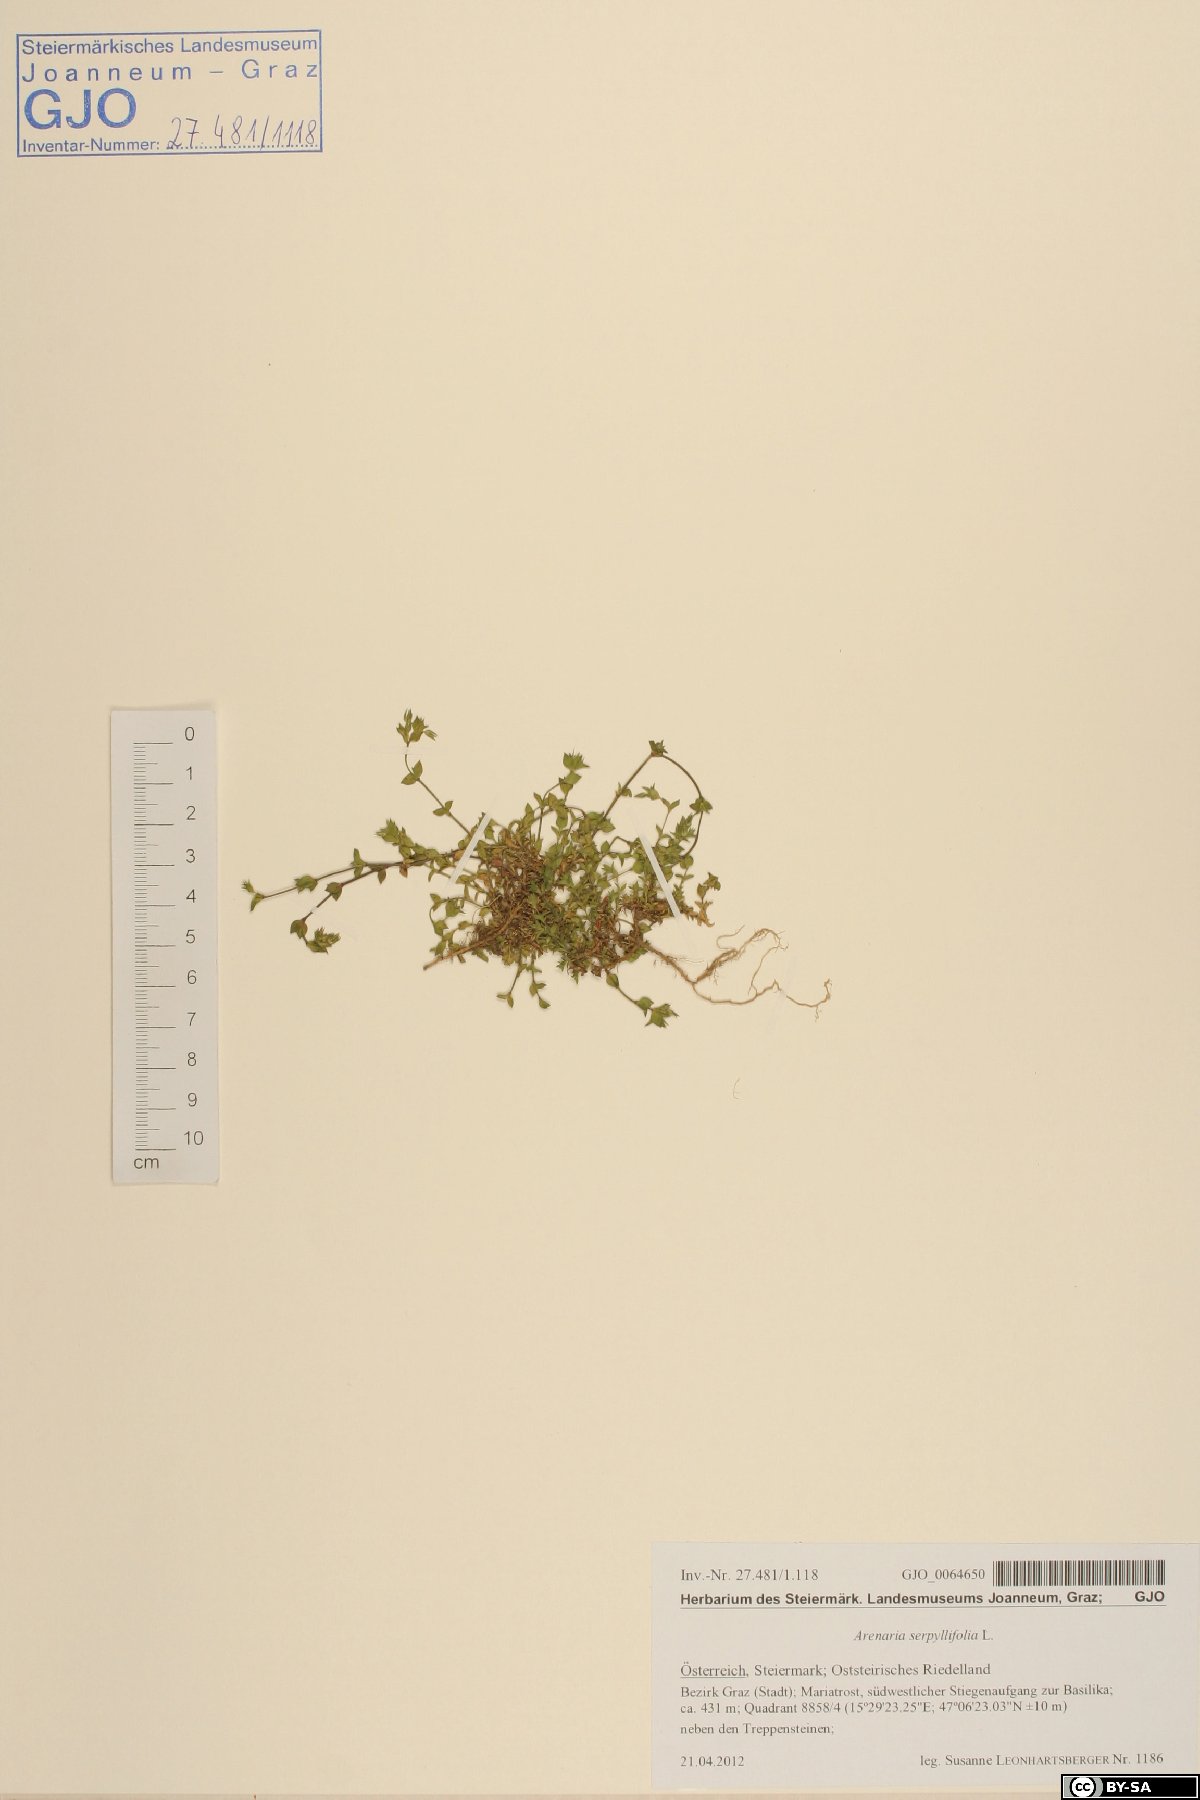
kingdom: Plantae
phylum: Tracheophyta
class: Magnoliopsida
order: Caryophyllales
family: Caryophyllaceae
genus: Arenaria
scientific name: Arenaria serpyllifolia
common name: Thyme-leaved sandwort
